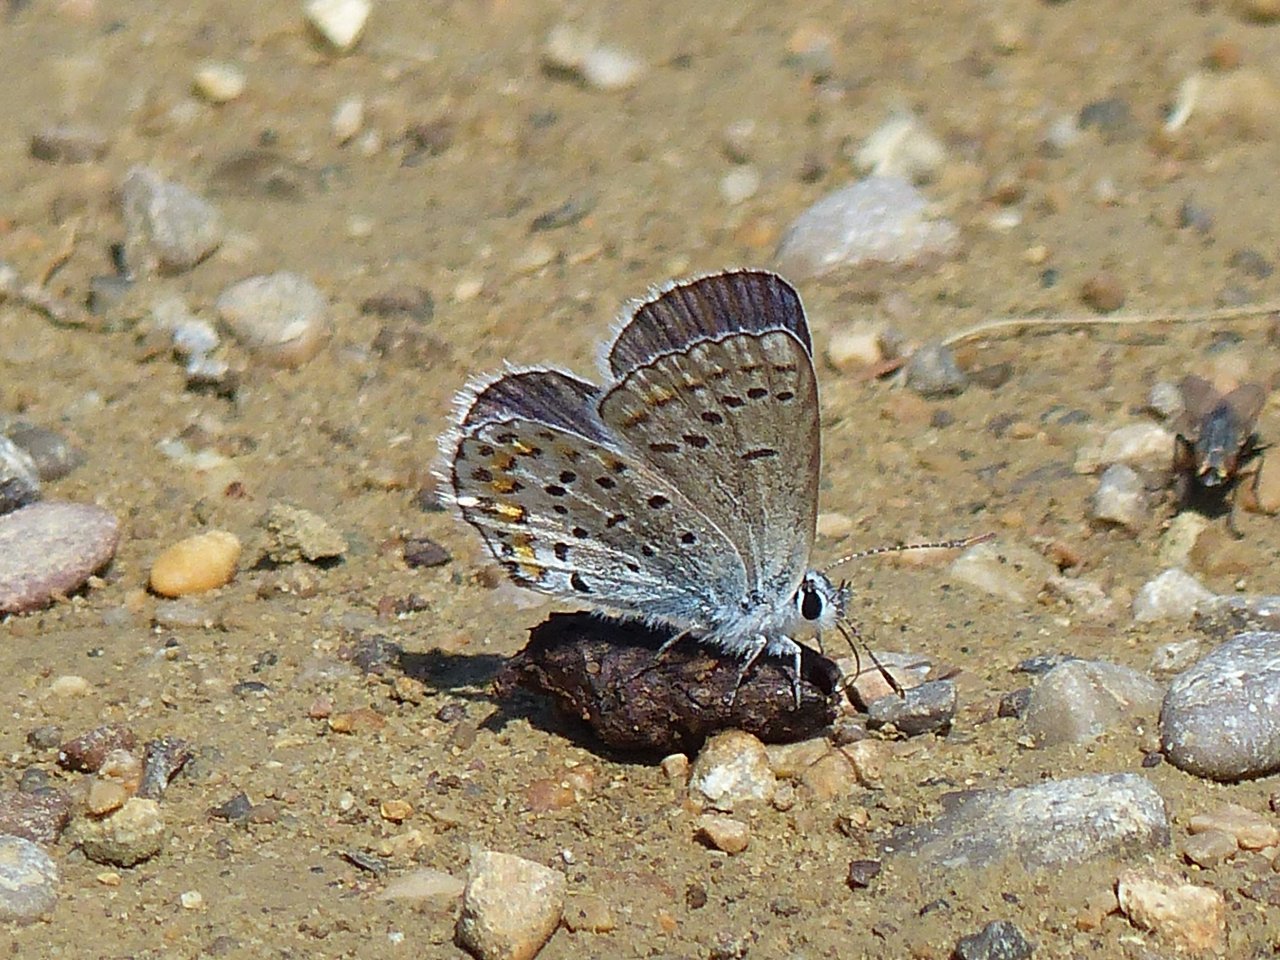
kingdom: Animalia
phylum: Arthropoda
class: Insecta
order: Lepidoptera
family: Lycaenidae
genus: Lycaeides
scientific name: Lycaeides melissa
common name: Melissa Blue
